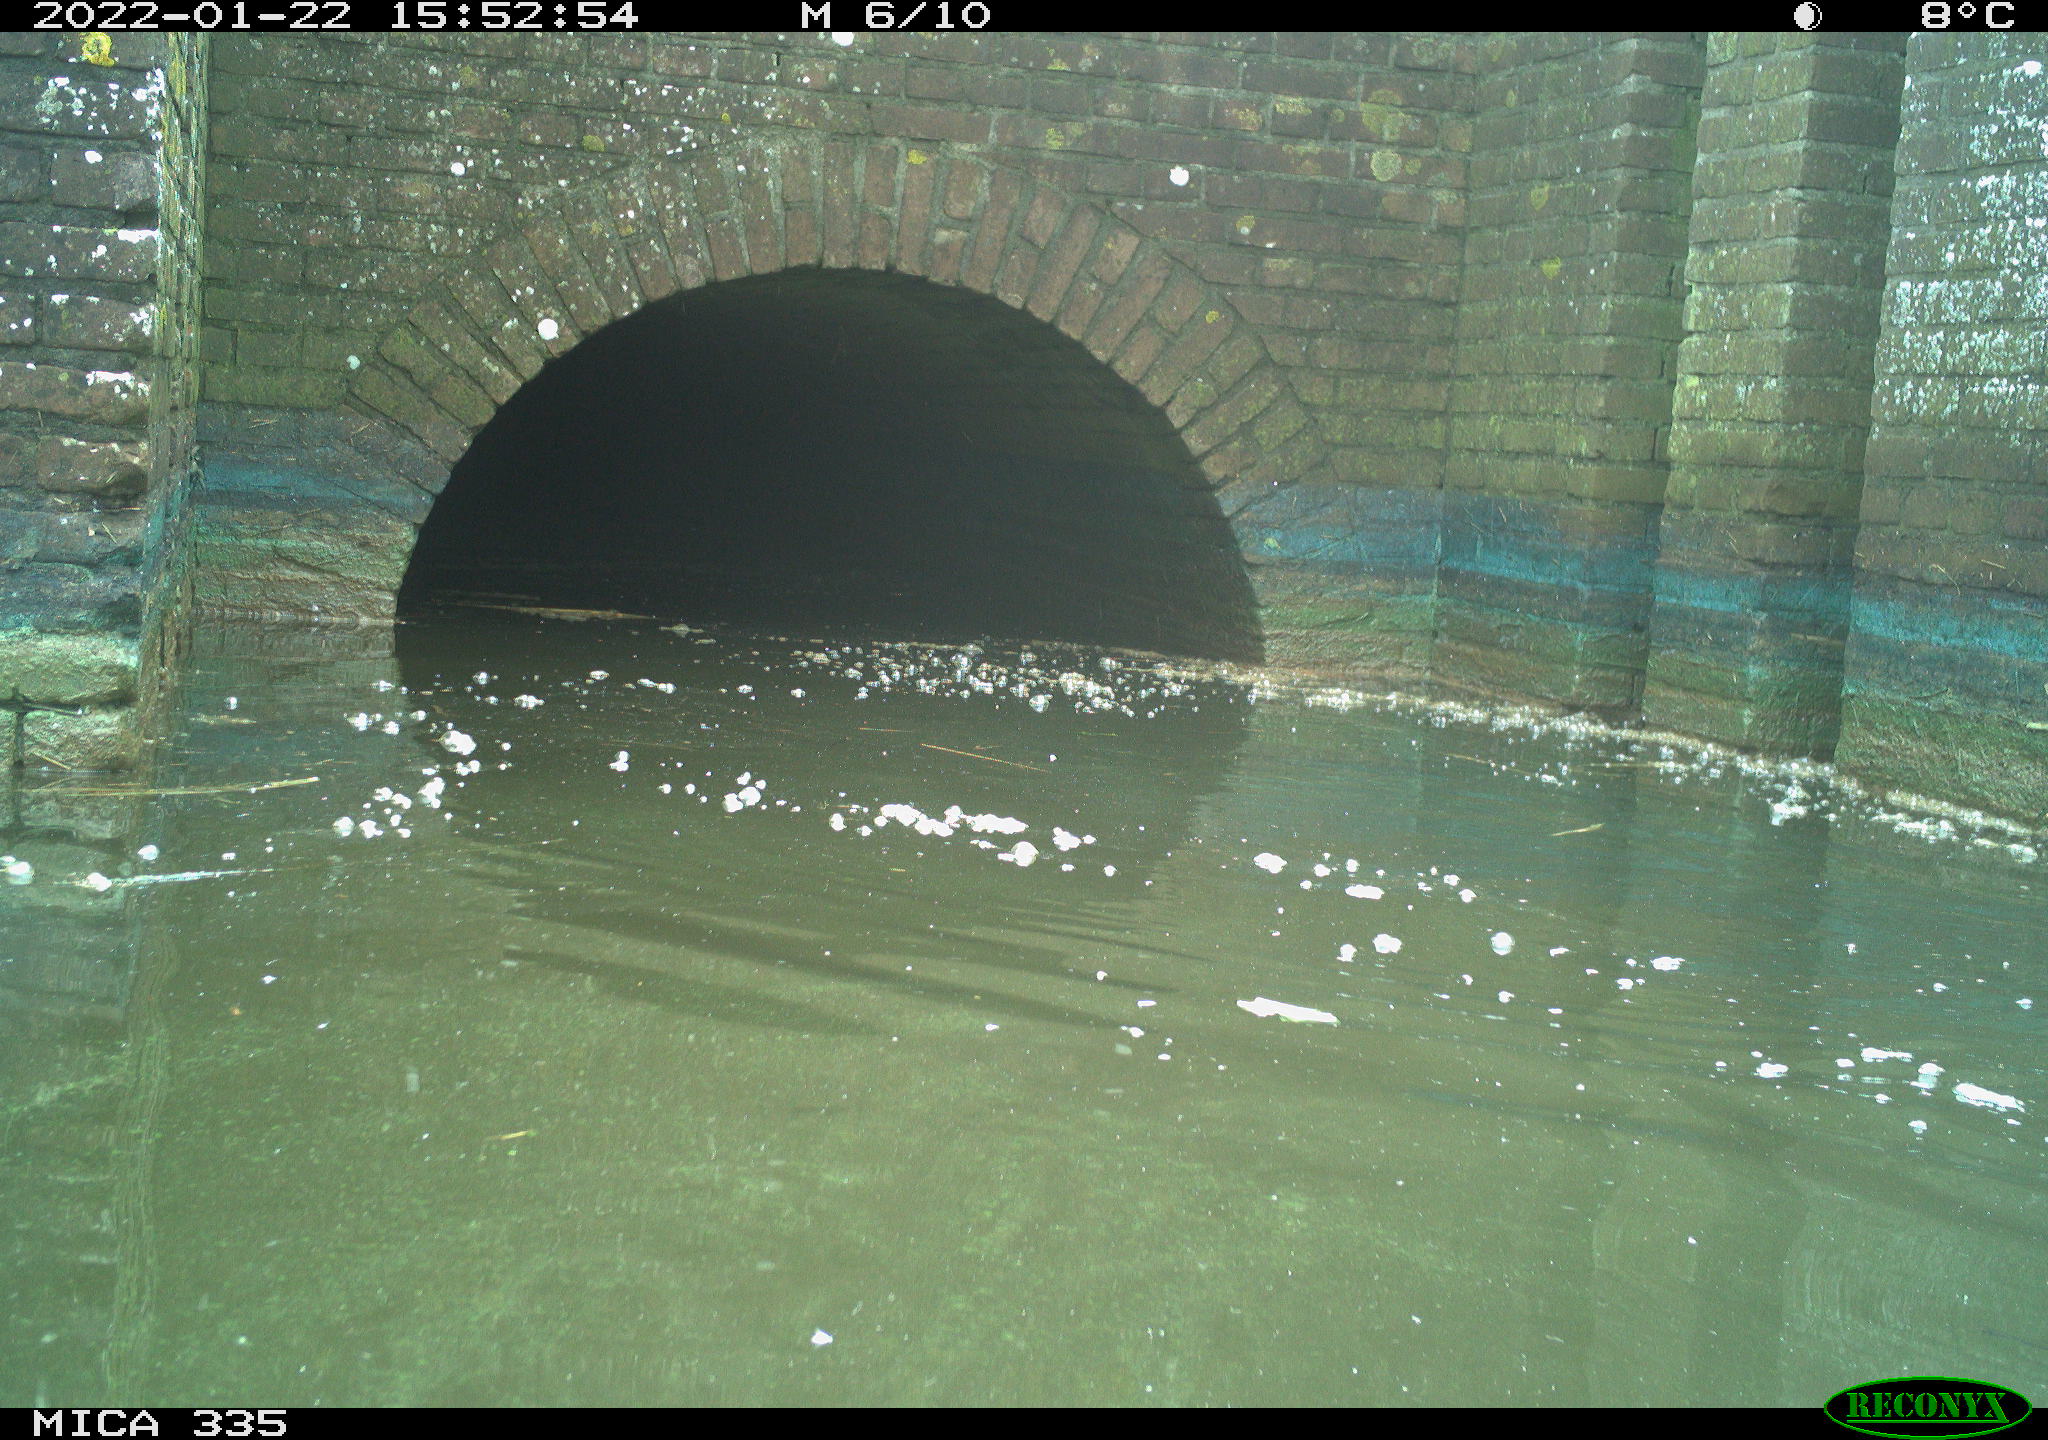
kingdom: Animalia
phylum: Chordata
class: Aves
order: Suliformes
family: Phalacrocoracidae
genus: Phalacrocorax
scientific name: Phalacrocorax carbo
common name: Great cormorant
